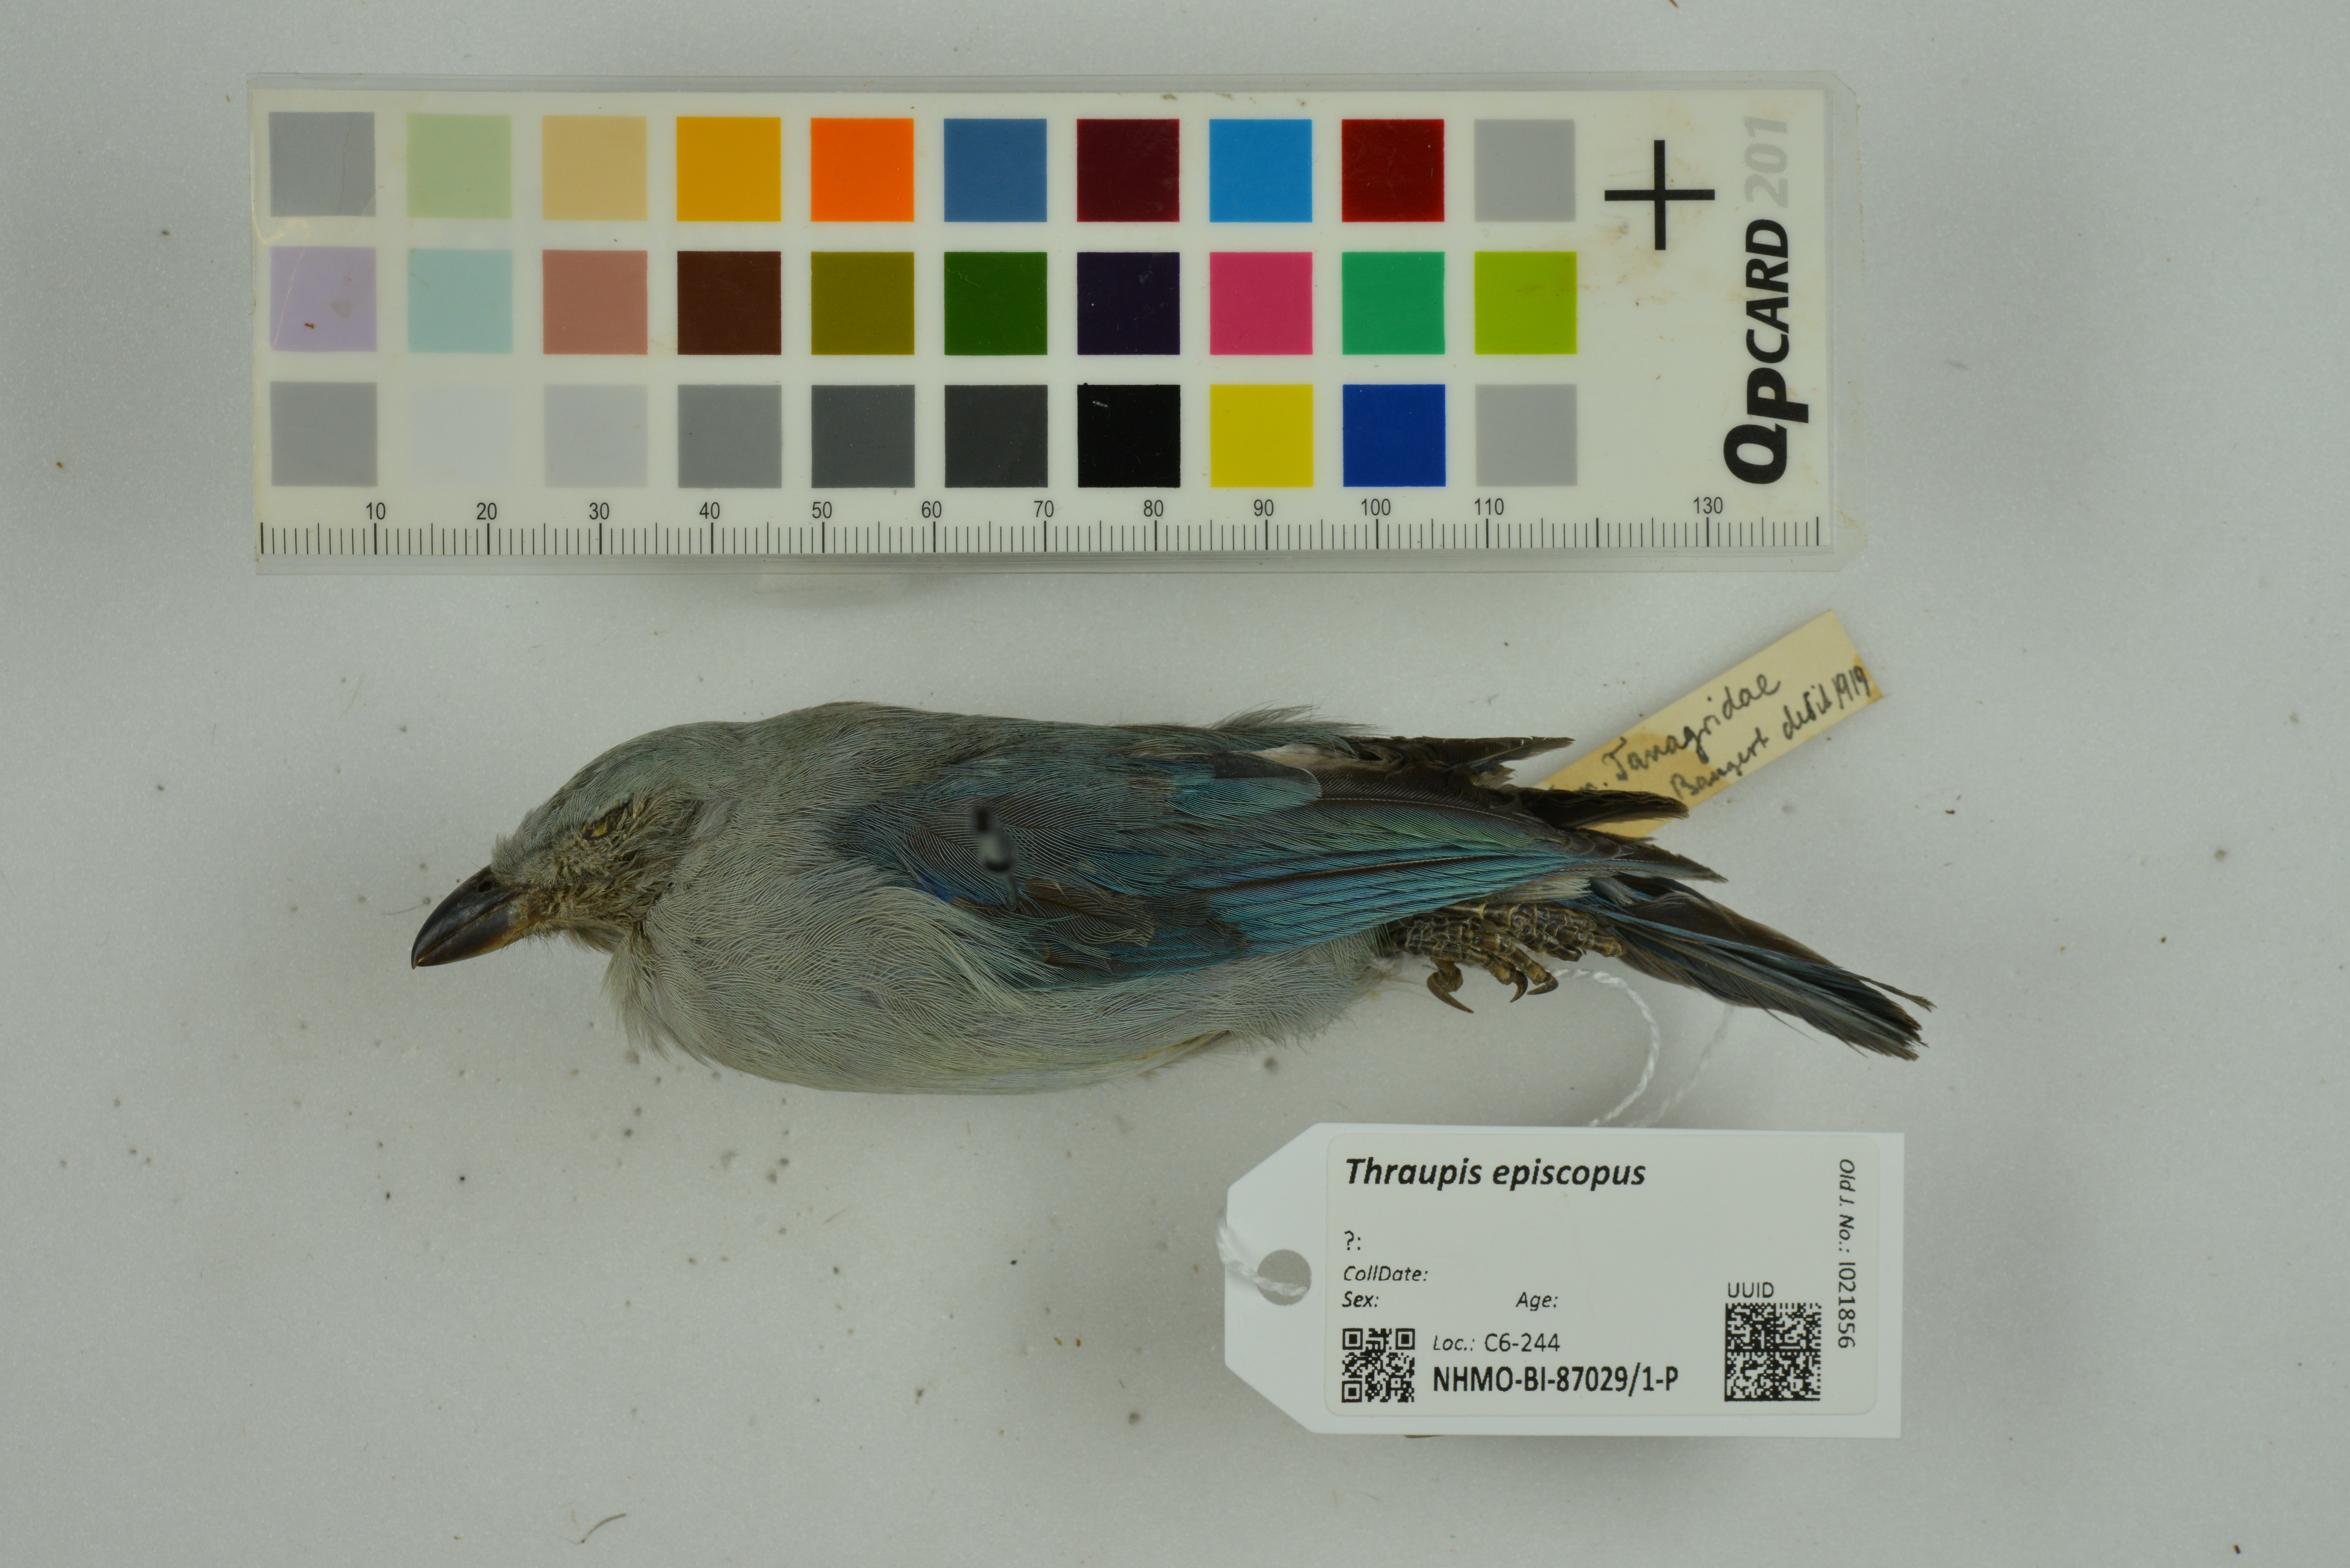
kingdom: Animalia
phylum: Chordata
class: Aves
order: Passeriformes
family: Thraupidae
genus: Thraupis
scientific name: Thraupis episcopus
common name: Blue-grey tanager
